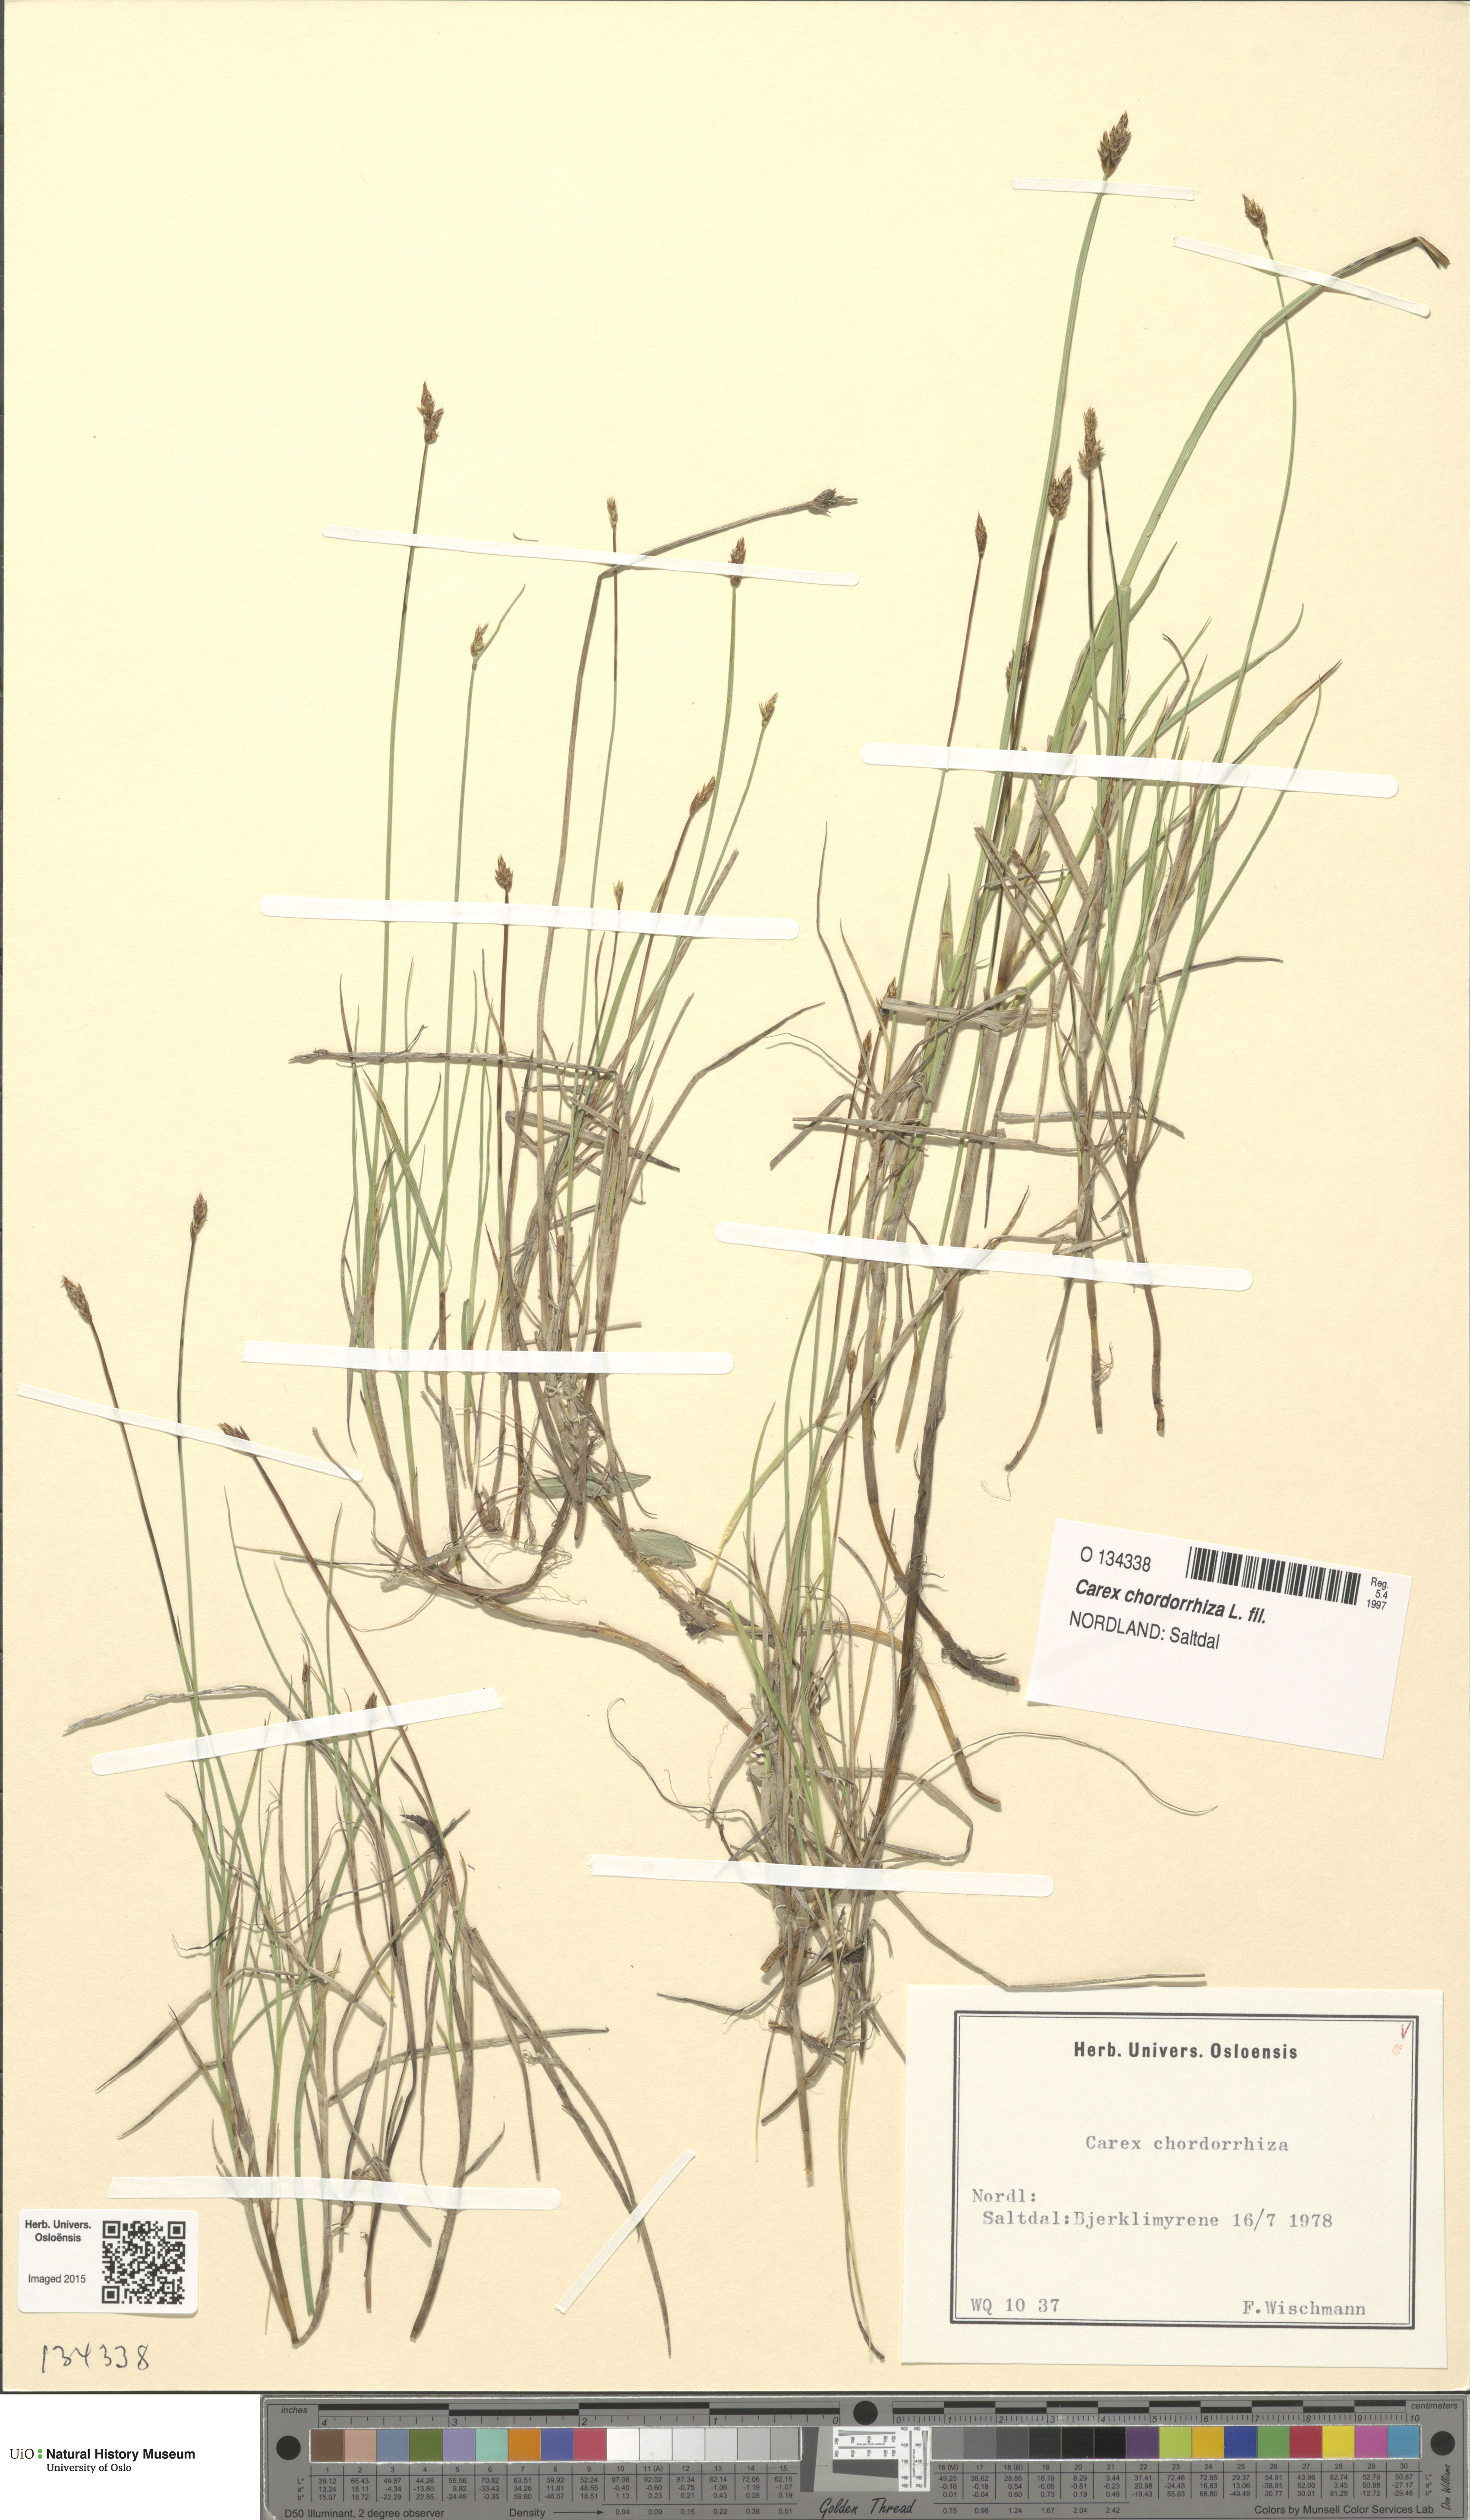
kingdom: Plantae
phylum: Tracheophyta
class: Liliopsida
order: Poales
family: Cyperaceae
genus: Carex
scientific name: Carex chordorrhiza
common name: String sedge
